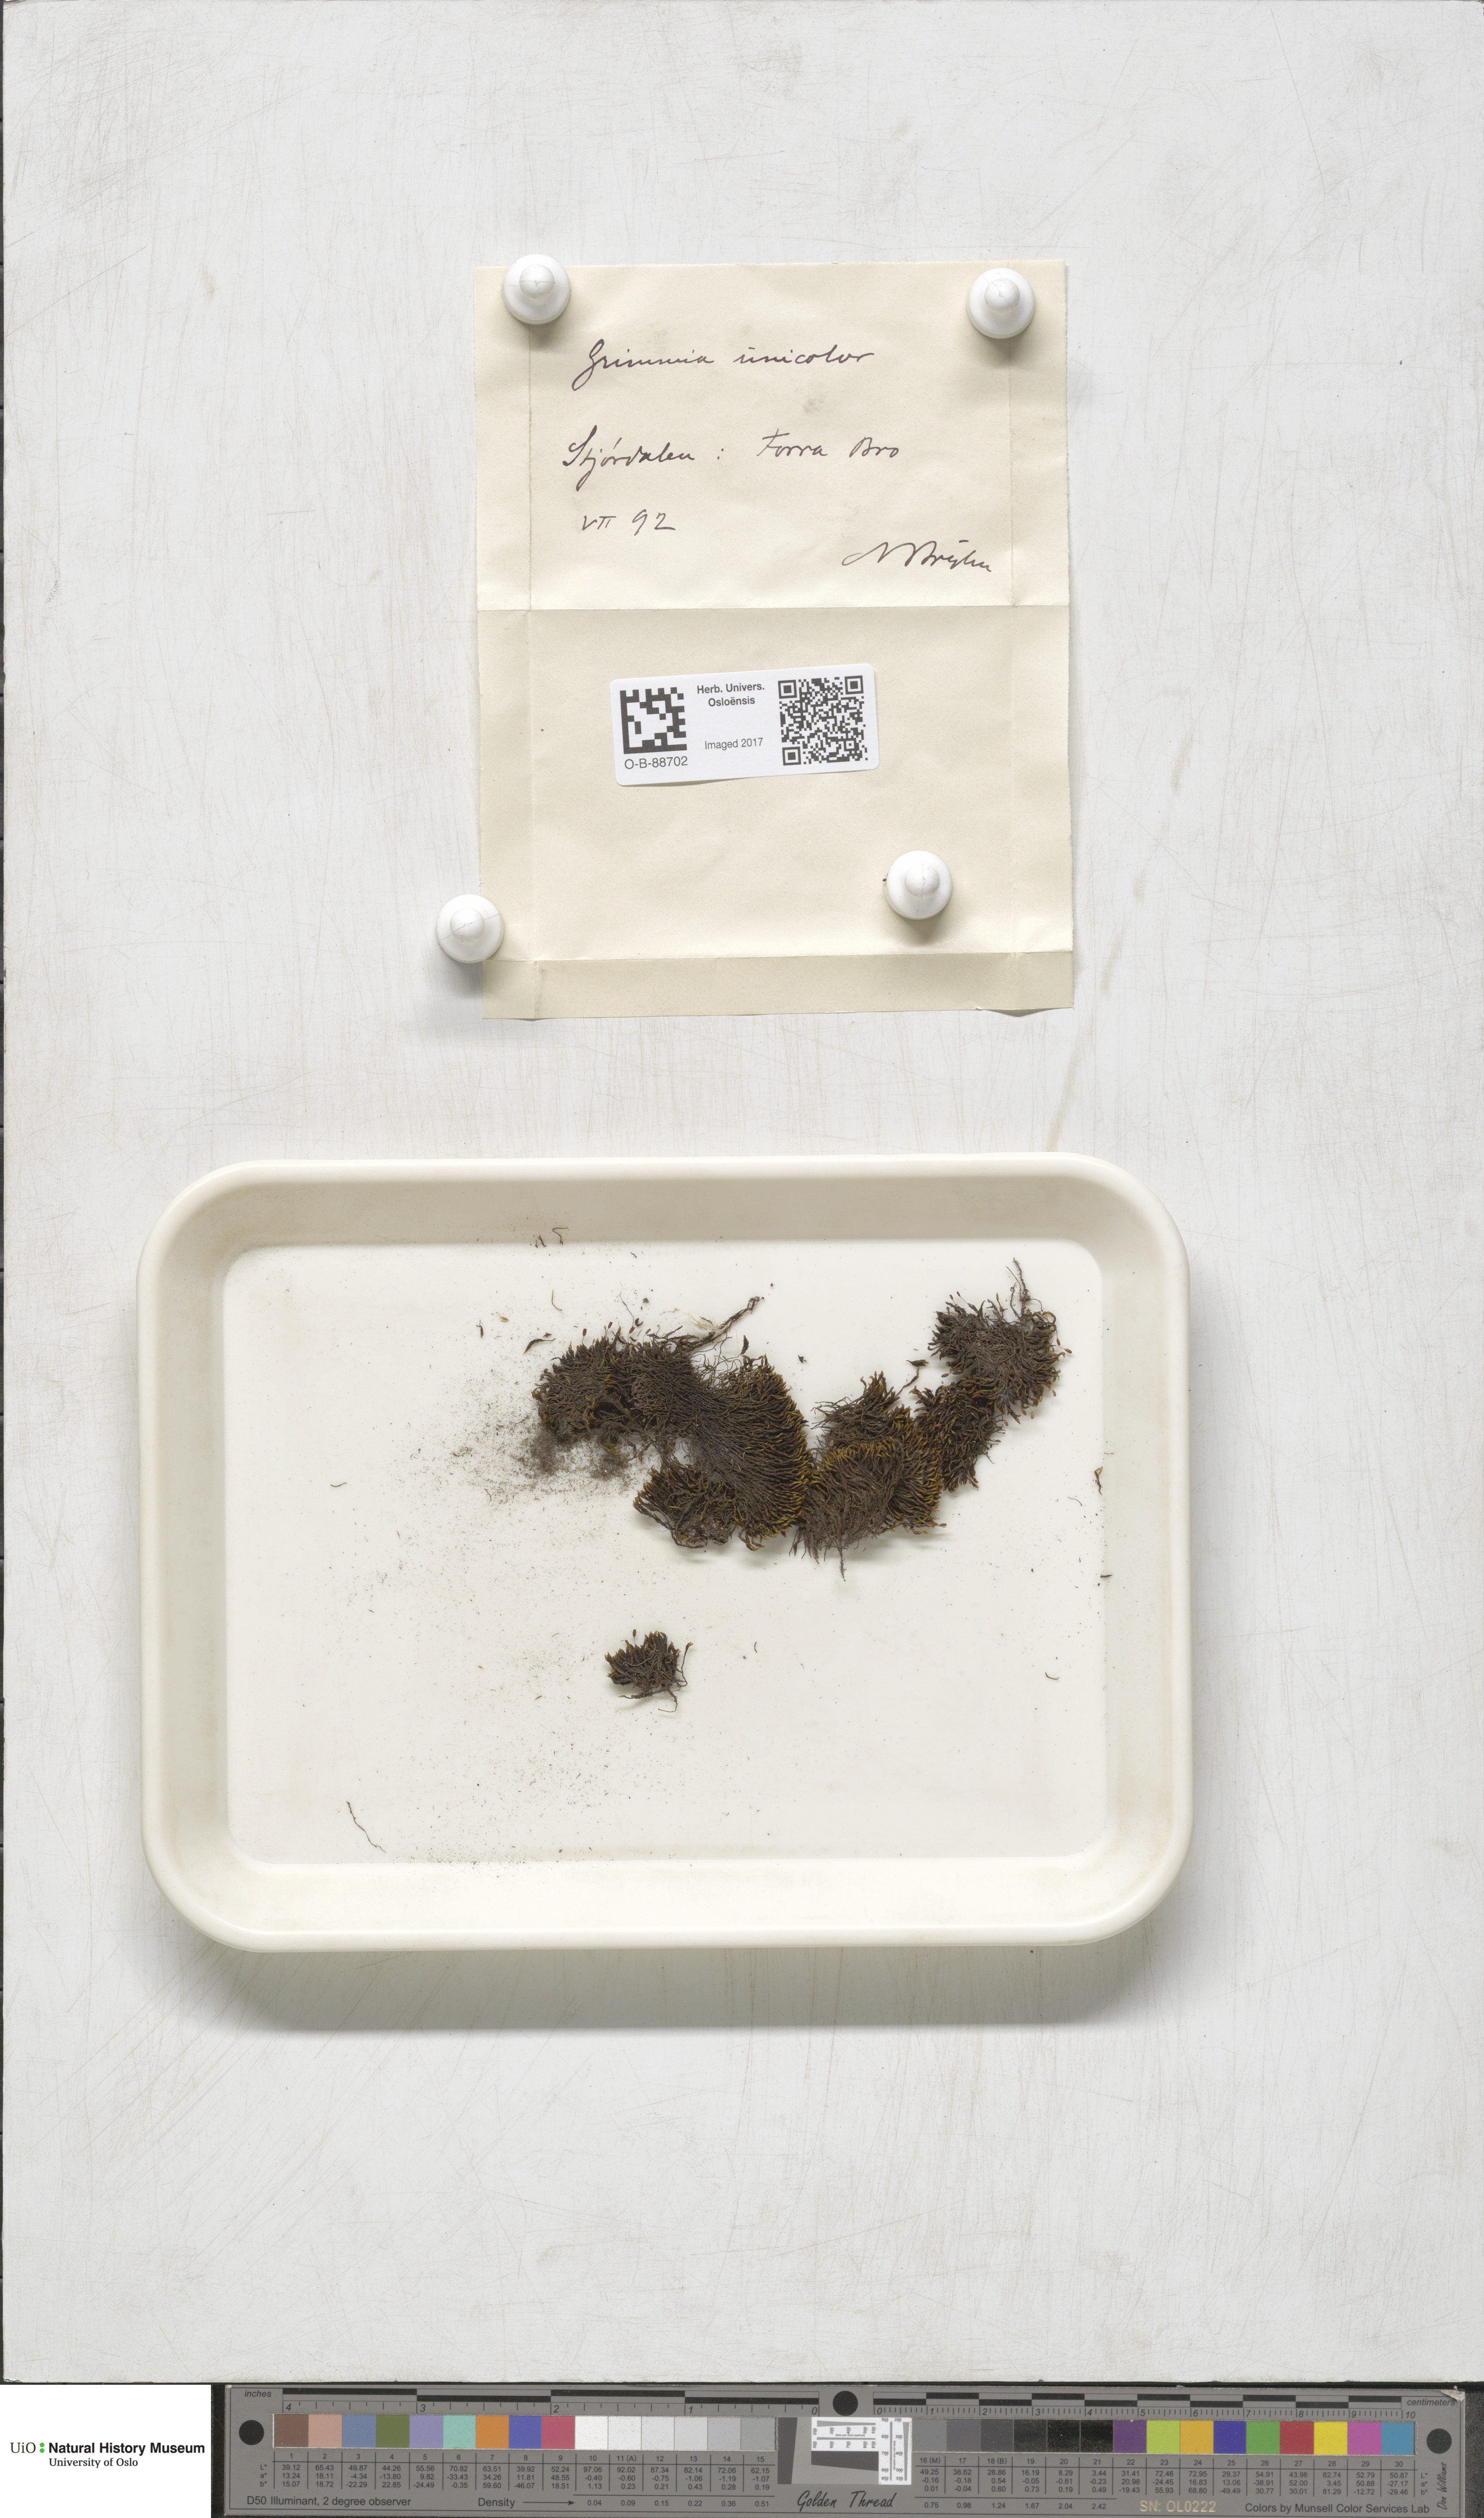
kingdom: Plantae
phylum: Bryophyta
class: Bryopsida
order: Grimmiales
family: Grimmiaceae
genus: Grimmia
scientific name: Grimmia unicolor
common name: Dingy grimmia
